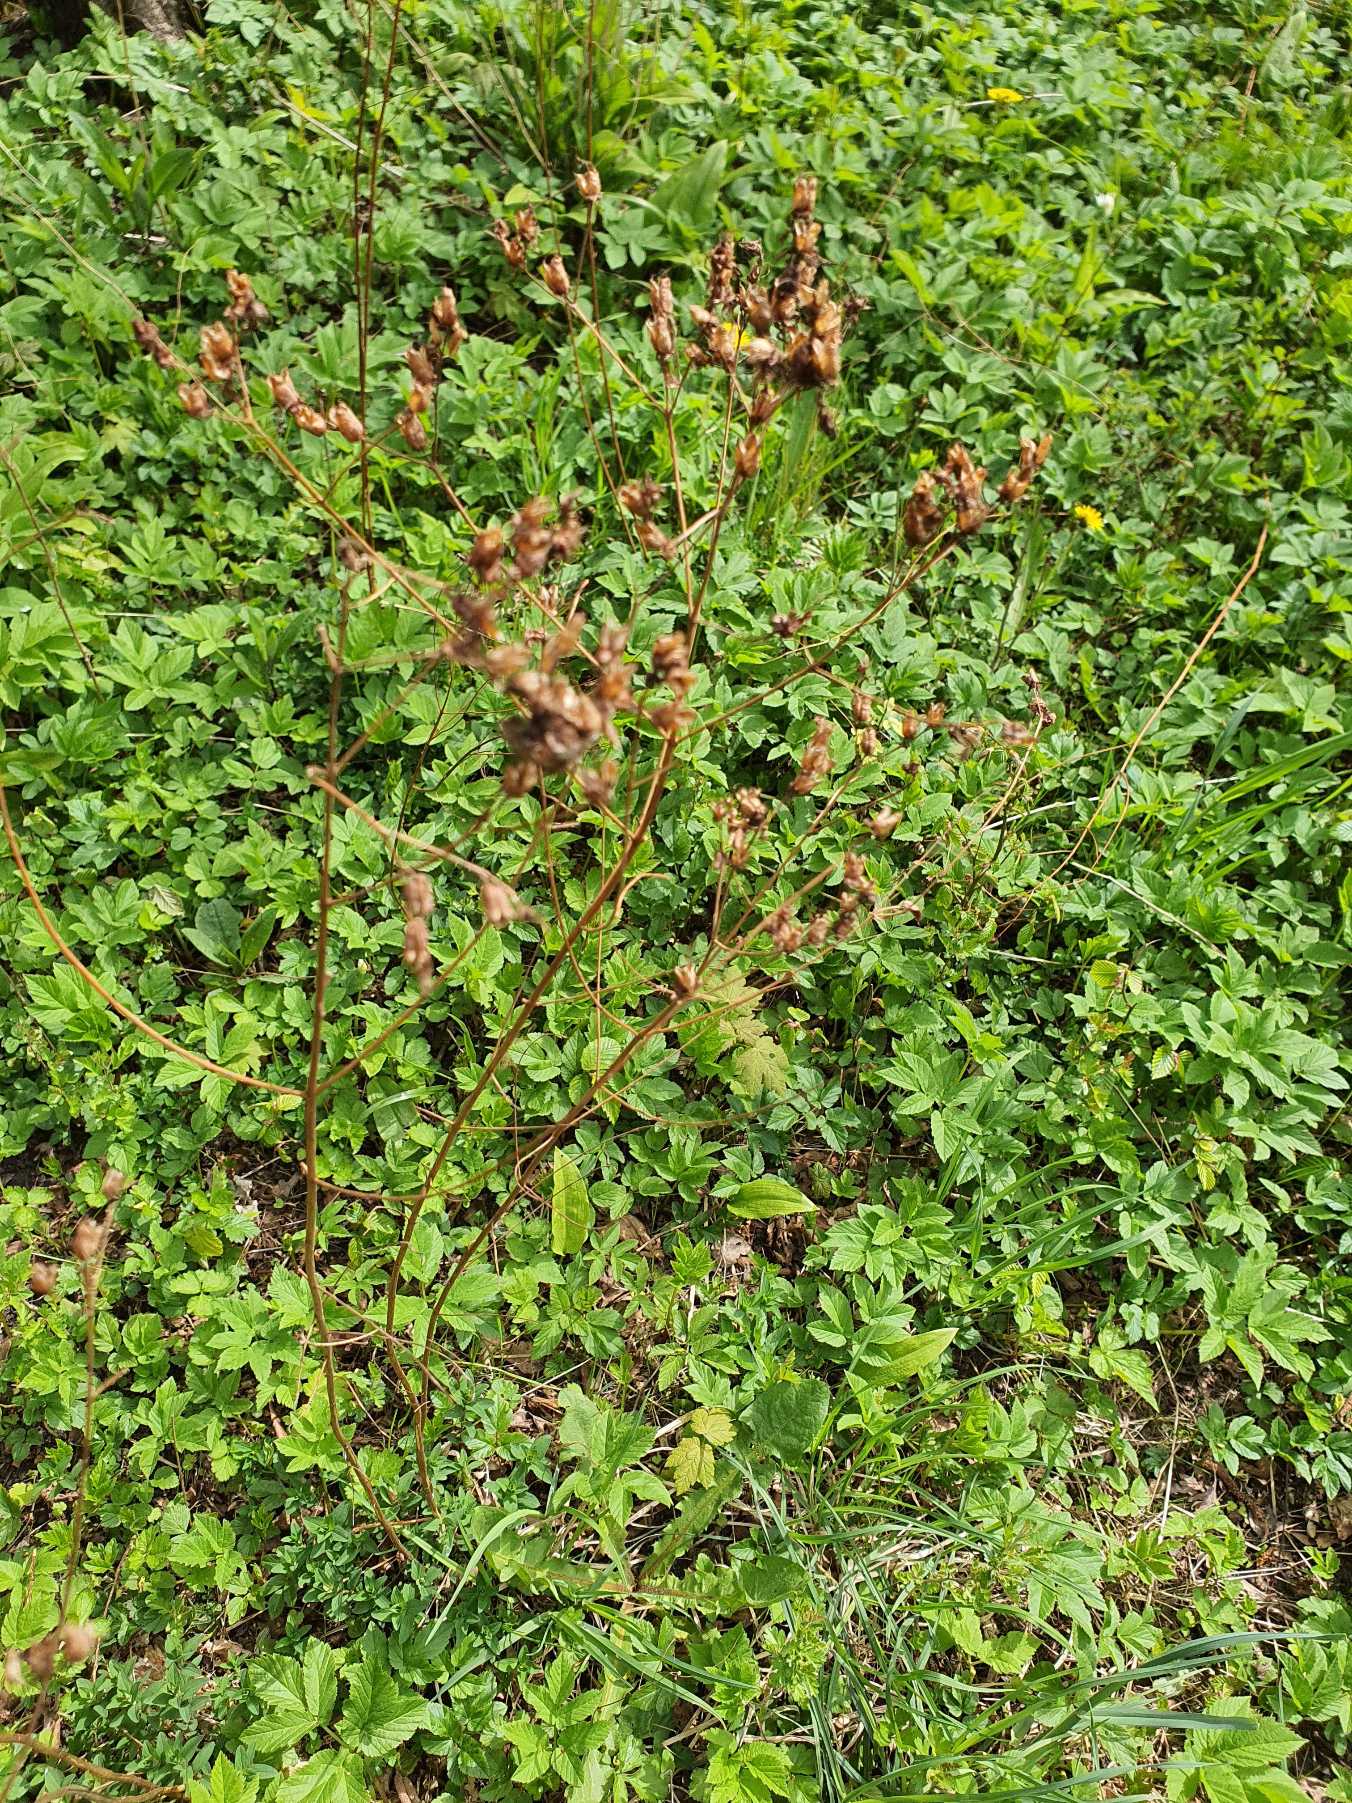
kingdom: Plantae
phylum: Tracheophyta
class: Magnoliopsida
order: Malpighiales
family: Hypericaceae
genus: Hypericum
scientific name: Hypericum perforatum
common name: Prikbladet perikon
